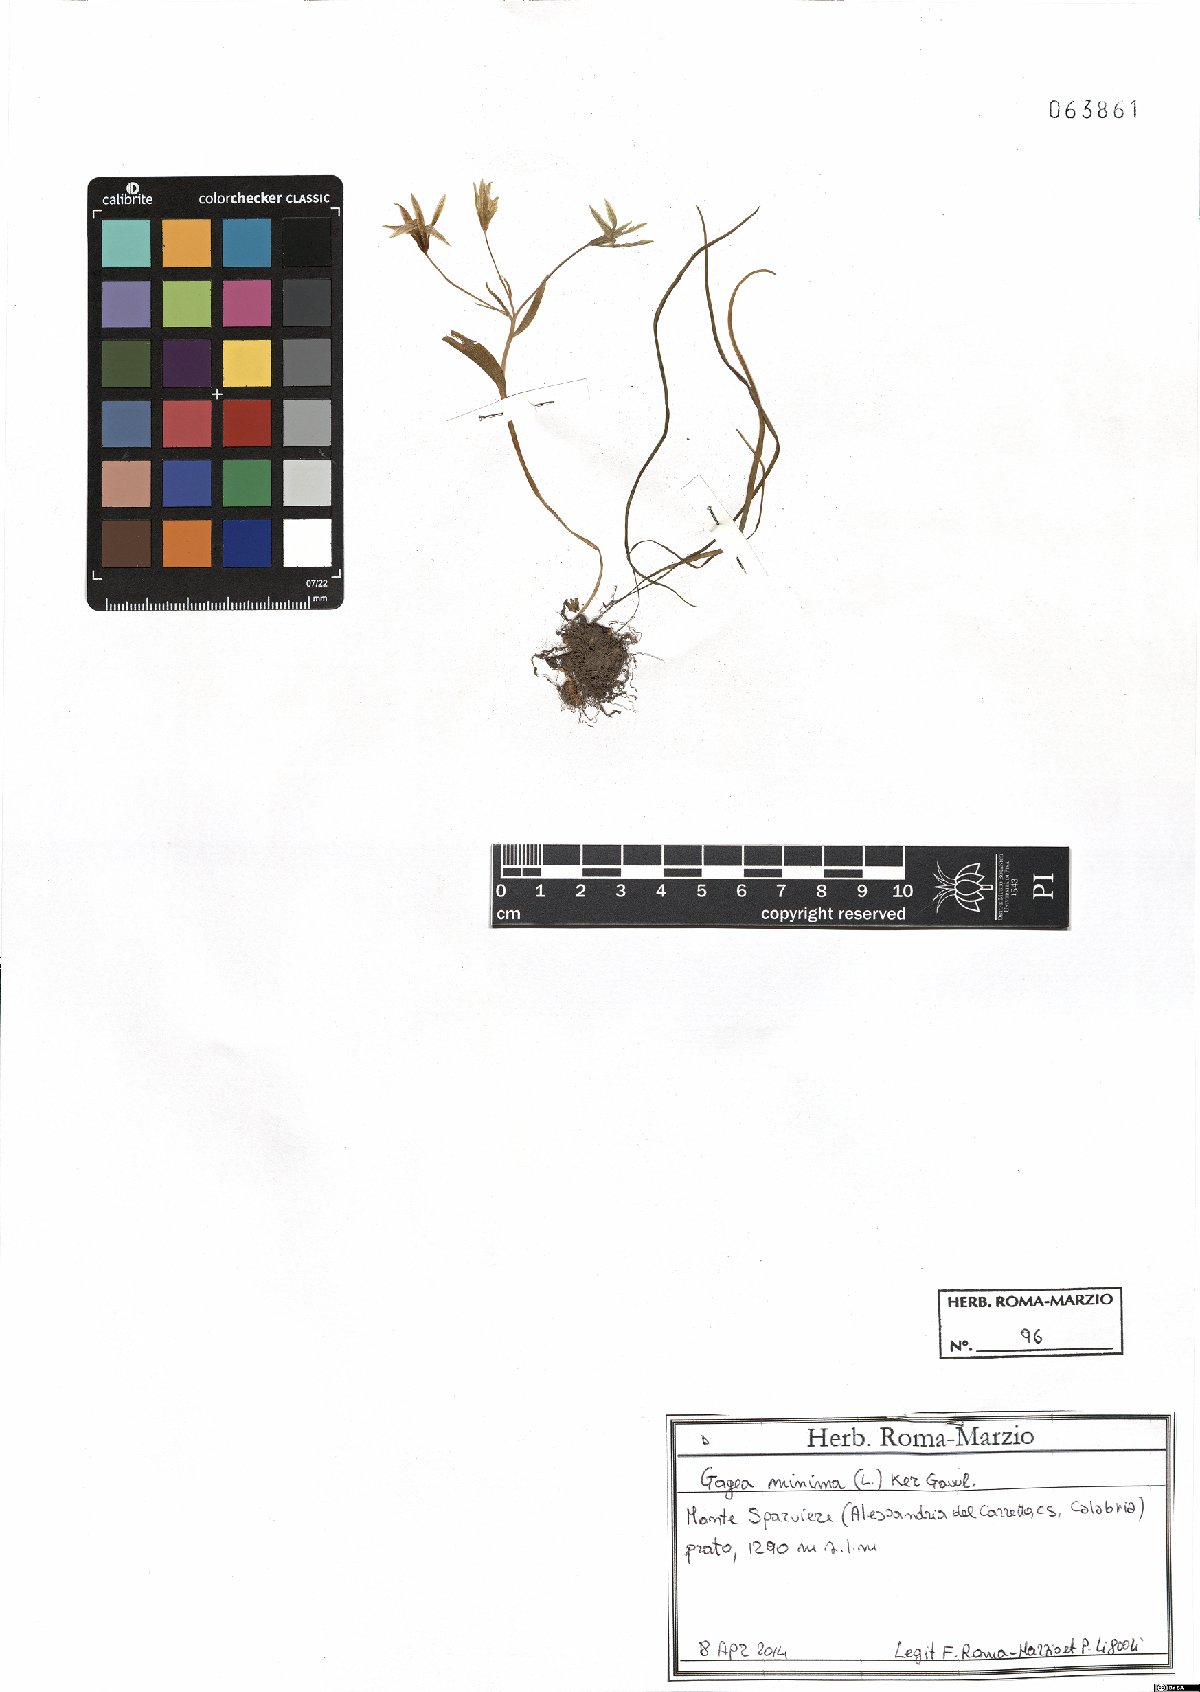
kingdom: Plantae
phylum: Tracheophyta
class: Liliopsida
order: Liliales
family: Liliaceae
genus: Gagea
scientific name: Gagea minima
